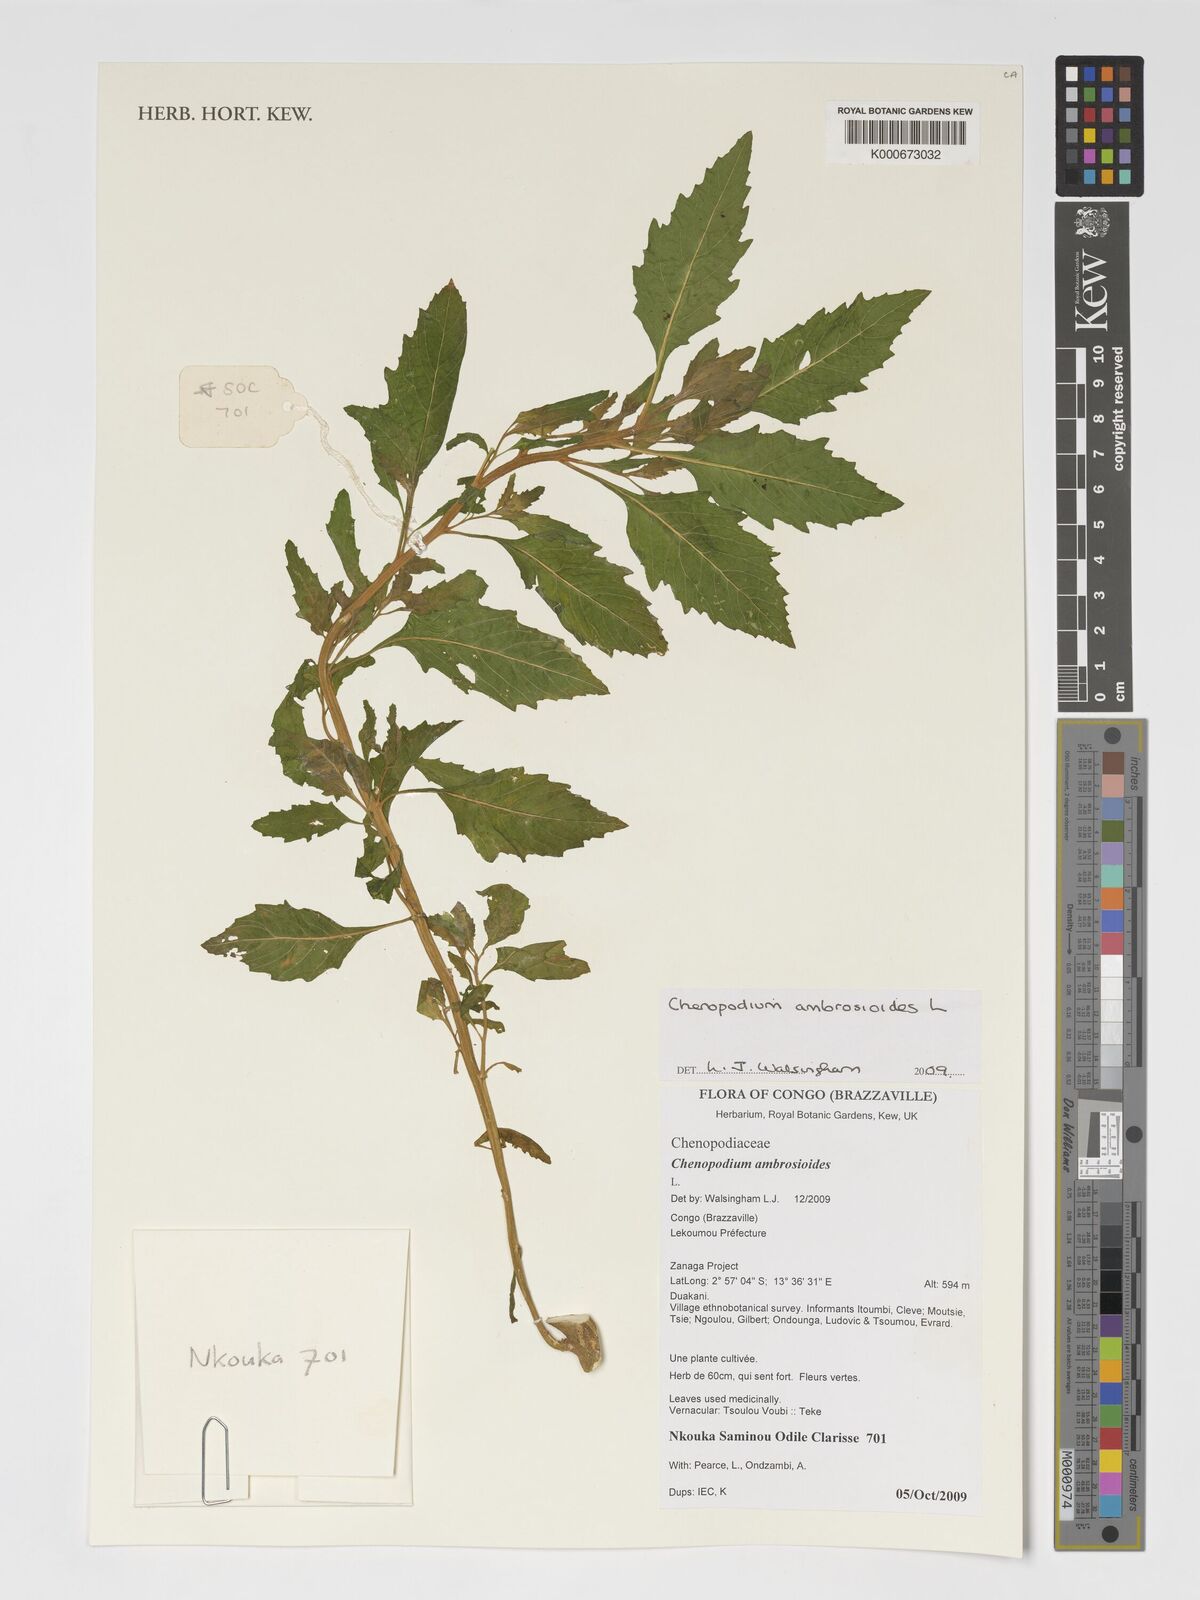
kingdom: Plantae
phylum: Tracheophyta
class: Magnoliopsida
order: Caryophyllales
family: Amaranthaceae
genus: Dysphania
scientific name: Dysphania ambrosioides
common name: Wormseed
